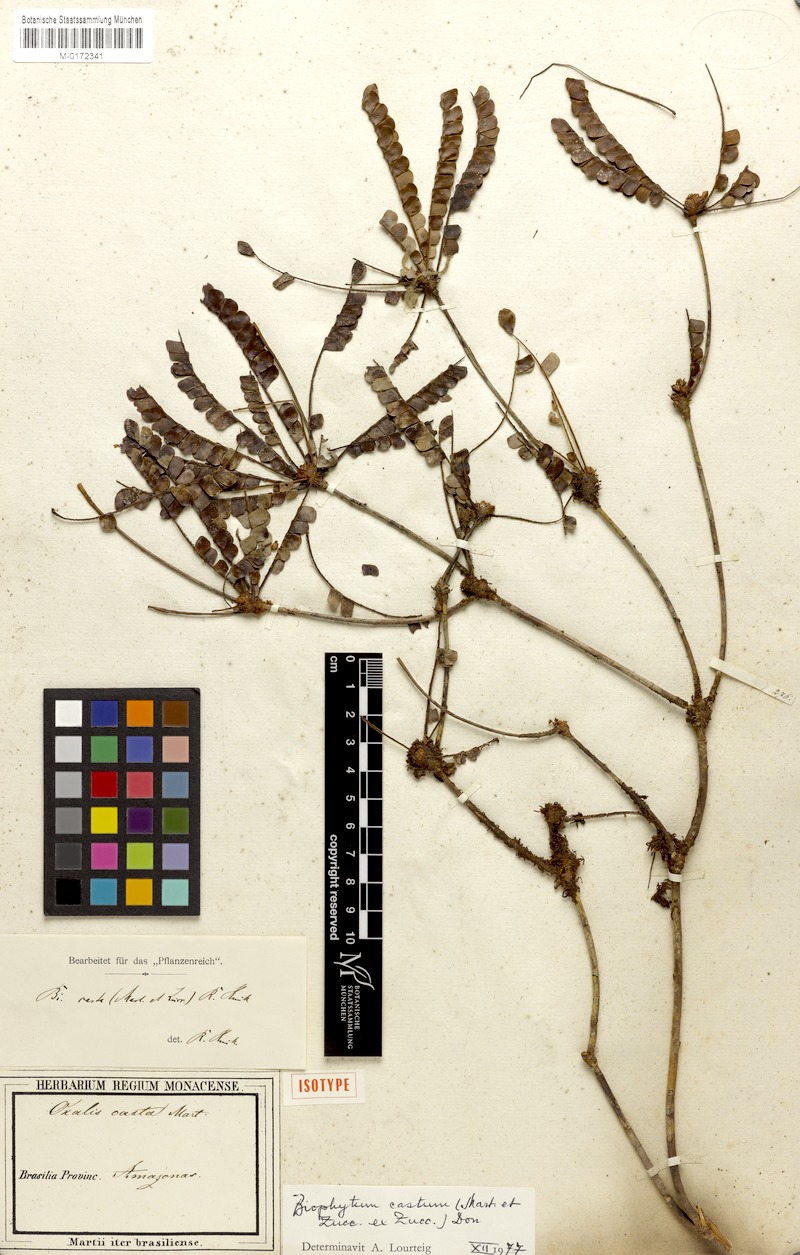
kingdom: Plantae
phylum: Tracheophyta
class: Magnoliopsida
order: Oxalidales
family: Oxalidaceae
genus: Biophytum
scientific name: Biophytum castum
